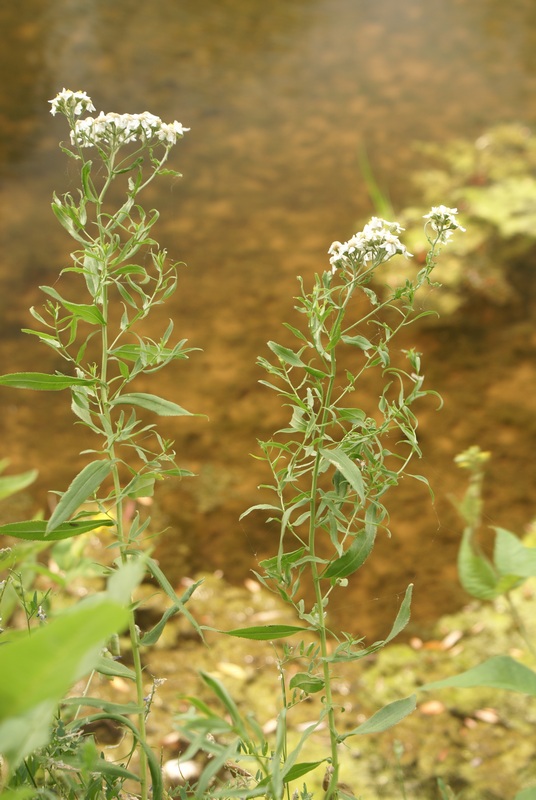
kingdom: Plantae
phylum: Tracheophyta
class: Magnoliopsida
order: Asterales
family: Asteraceae
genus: Achillea
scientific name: Achillea ptarmica
